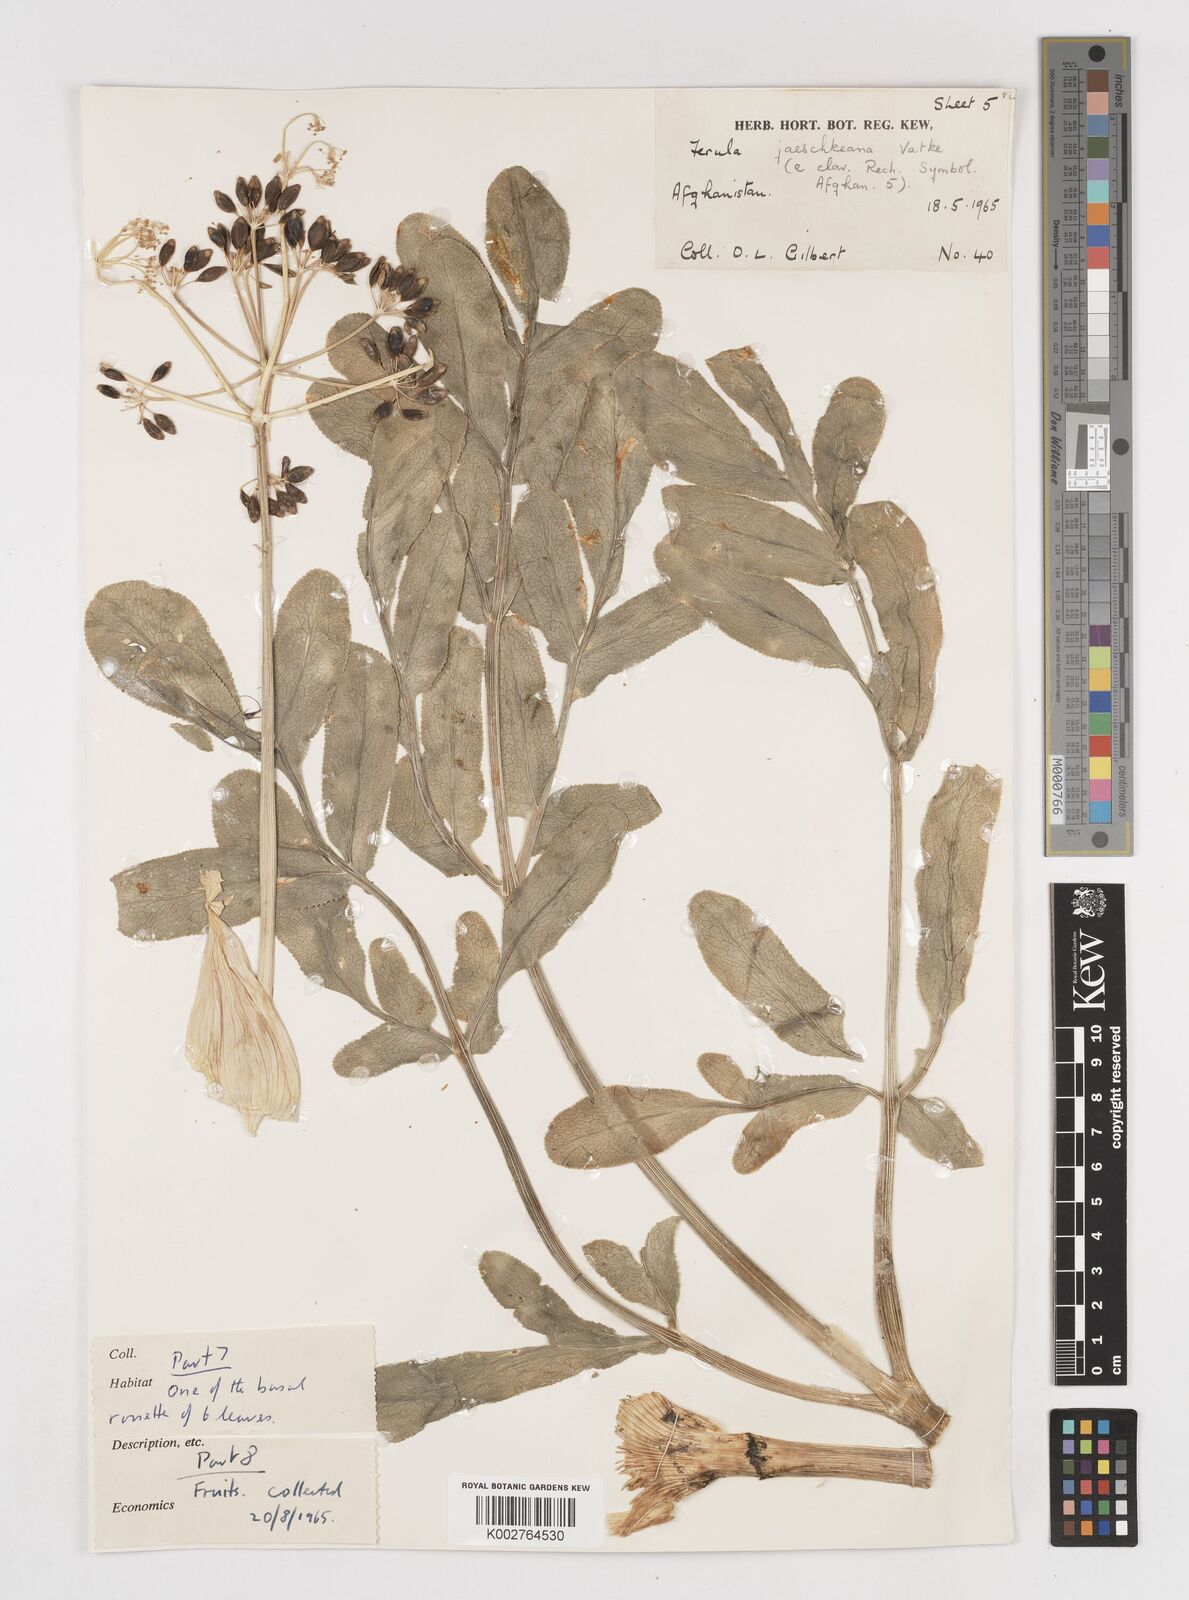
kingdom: Plantae
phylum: Tracheophyta
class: Magnoliopsida
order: Apiales
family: Apiaceae
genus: Ferula
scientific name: Ferula jaeschkeana
